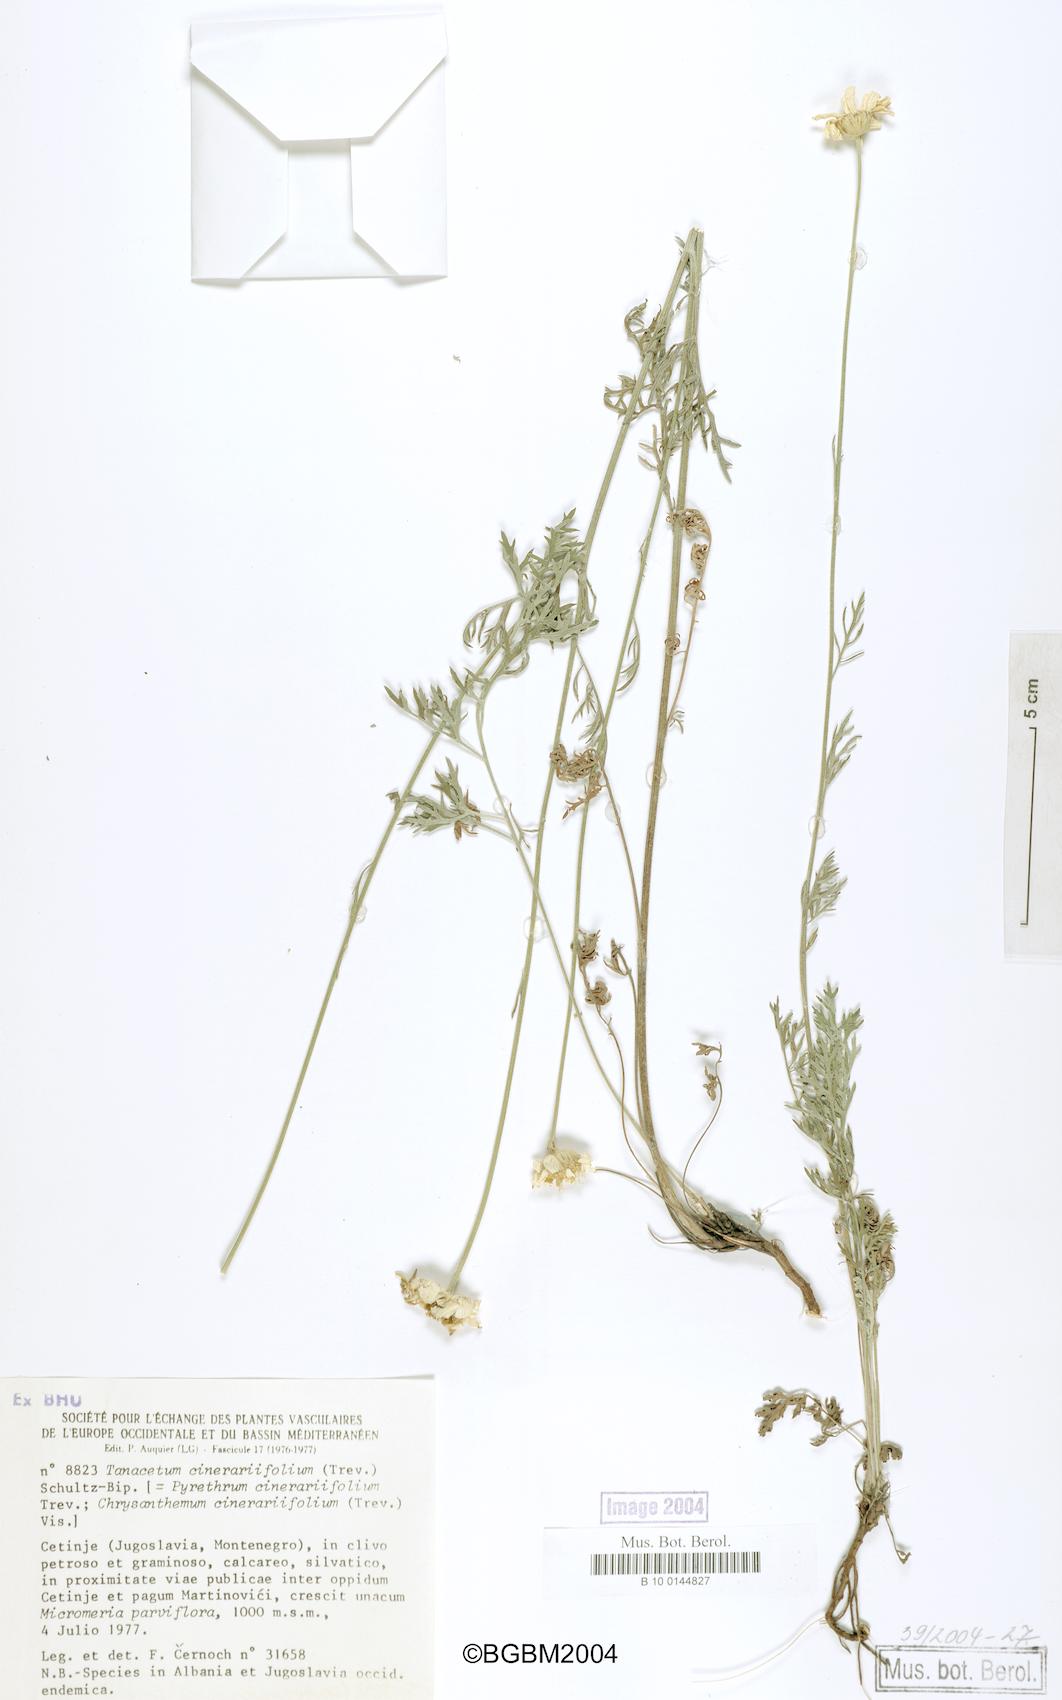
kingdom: Plantae
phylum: Tracheophyta
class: Magnoliopsida
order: Asterales
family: Asteraceae
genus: Tanacetum
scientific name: Tanacetum cinerariifolium
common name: Dalmatian pyrethrum
